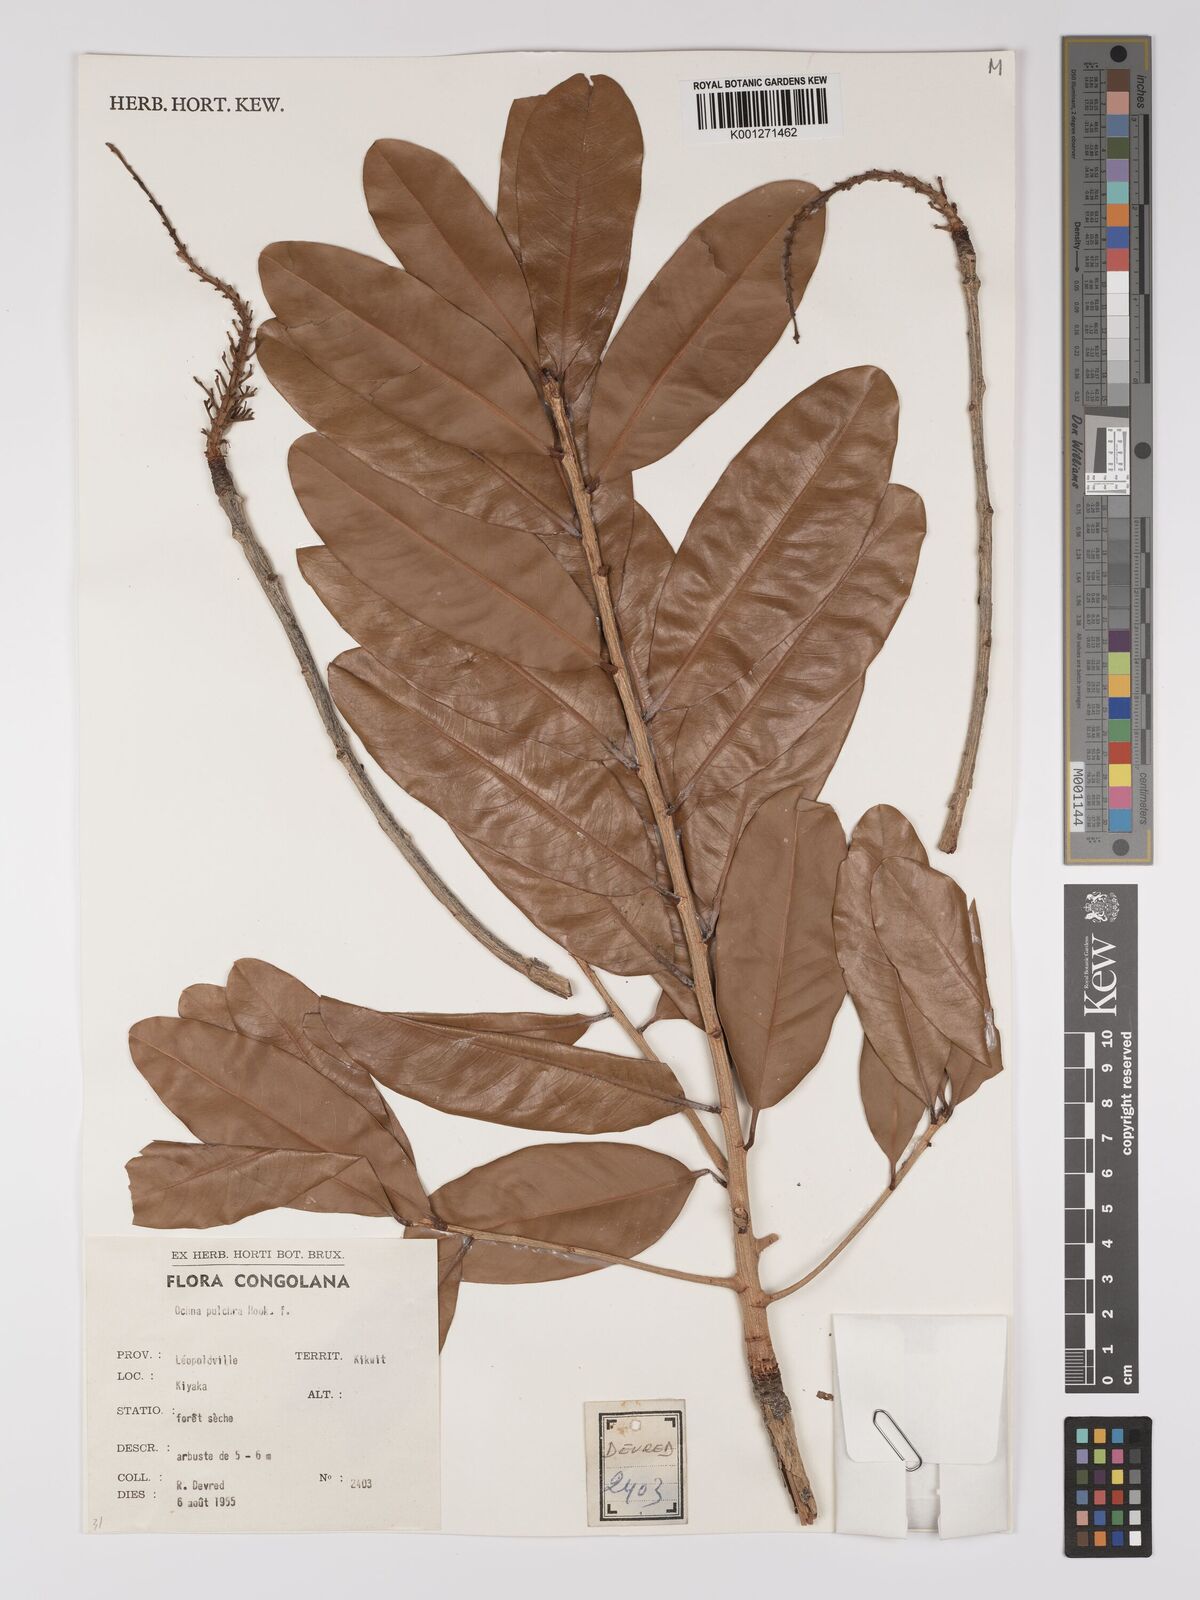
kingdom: Plantae
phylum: Tracheophyta
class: Magnoliopsida
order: Malpighiales
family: Ochnaceae
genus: Ochna
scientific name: Ochna pulchra
